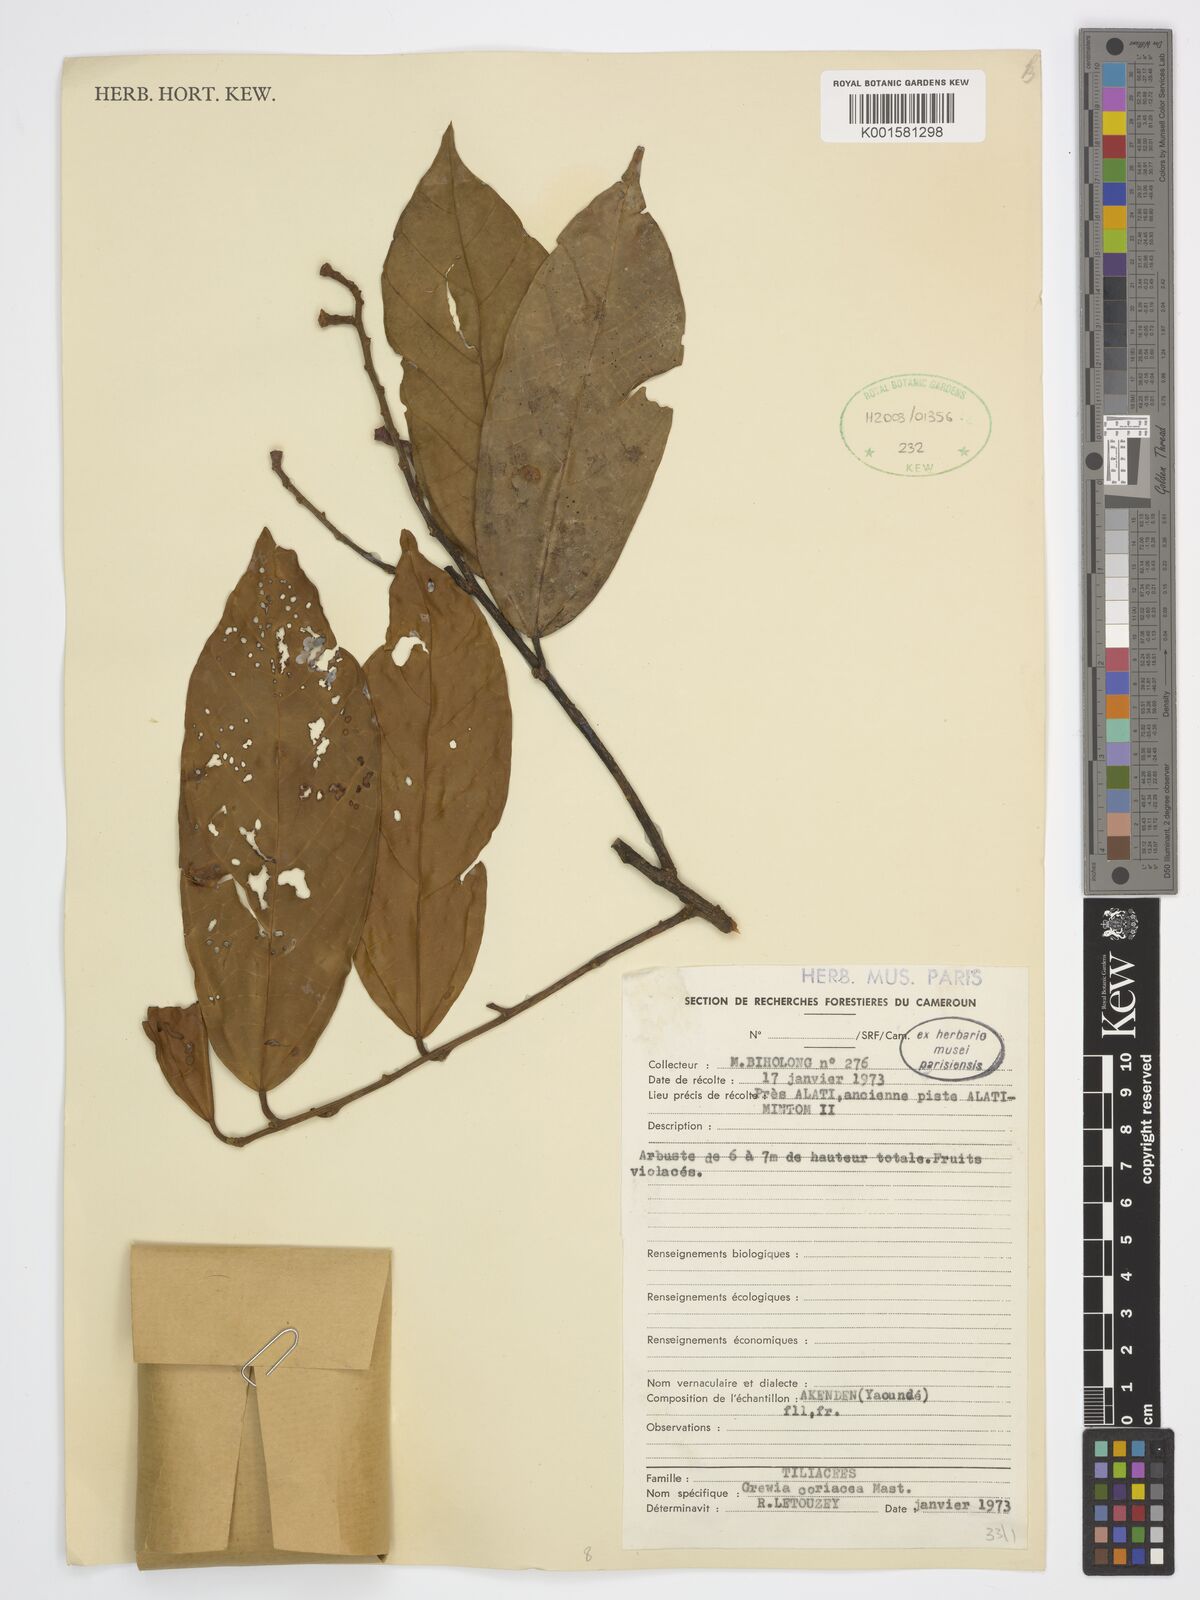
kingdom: Plantae
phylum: Tracheophyta
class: Magnoliopsida
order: Malvales
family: Malvaceae
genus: Microcos
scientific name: Microcos coriacea
